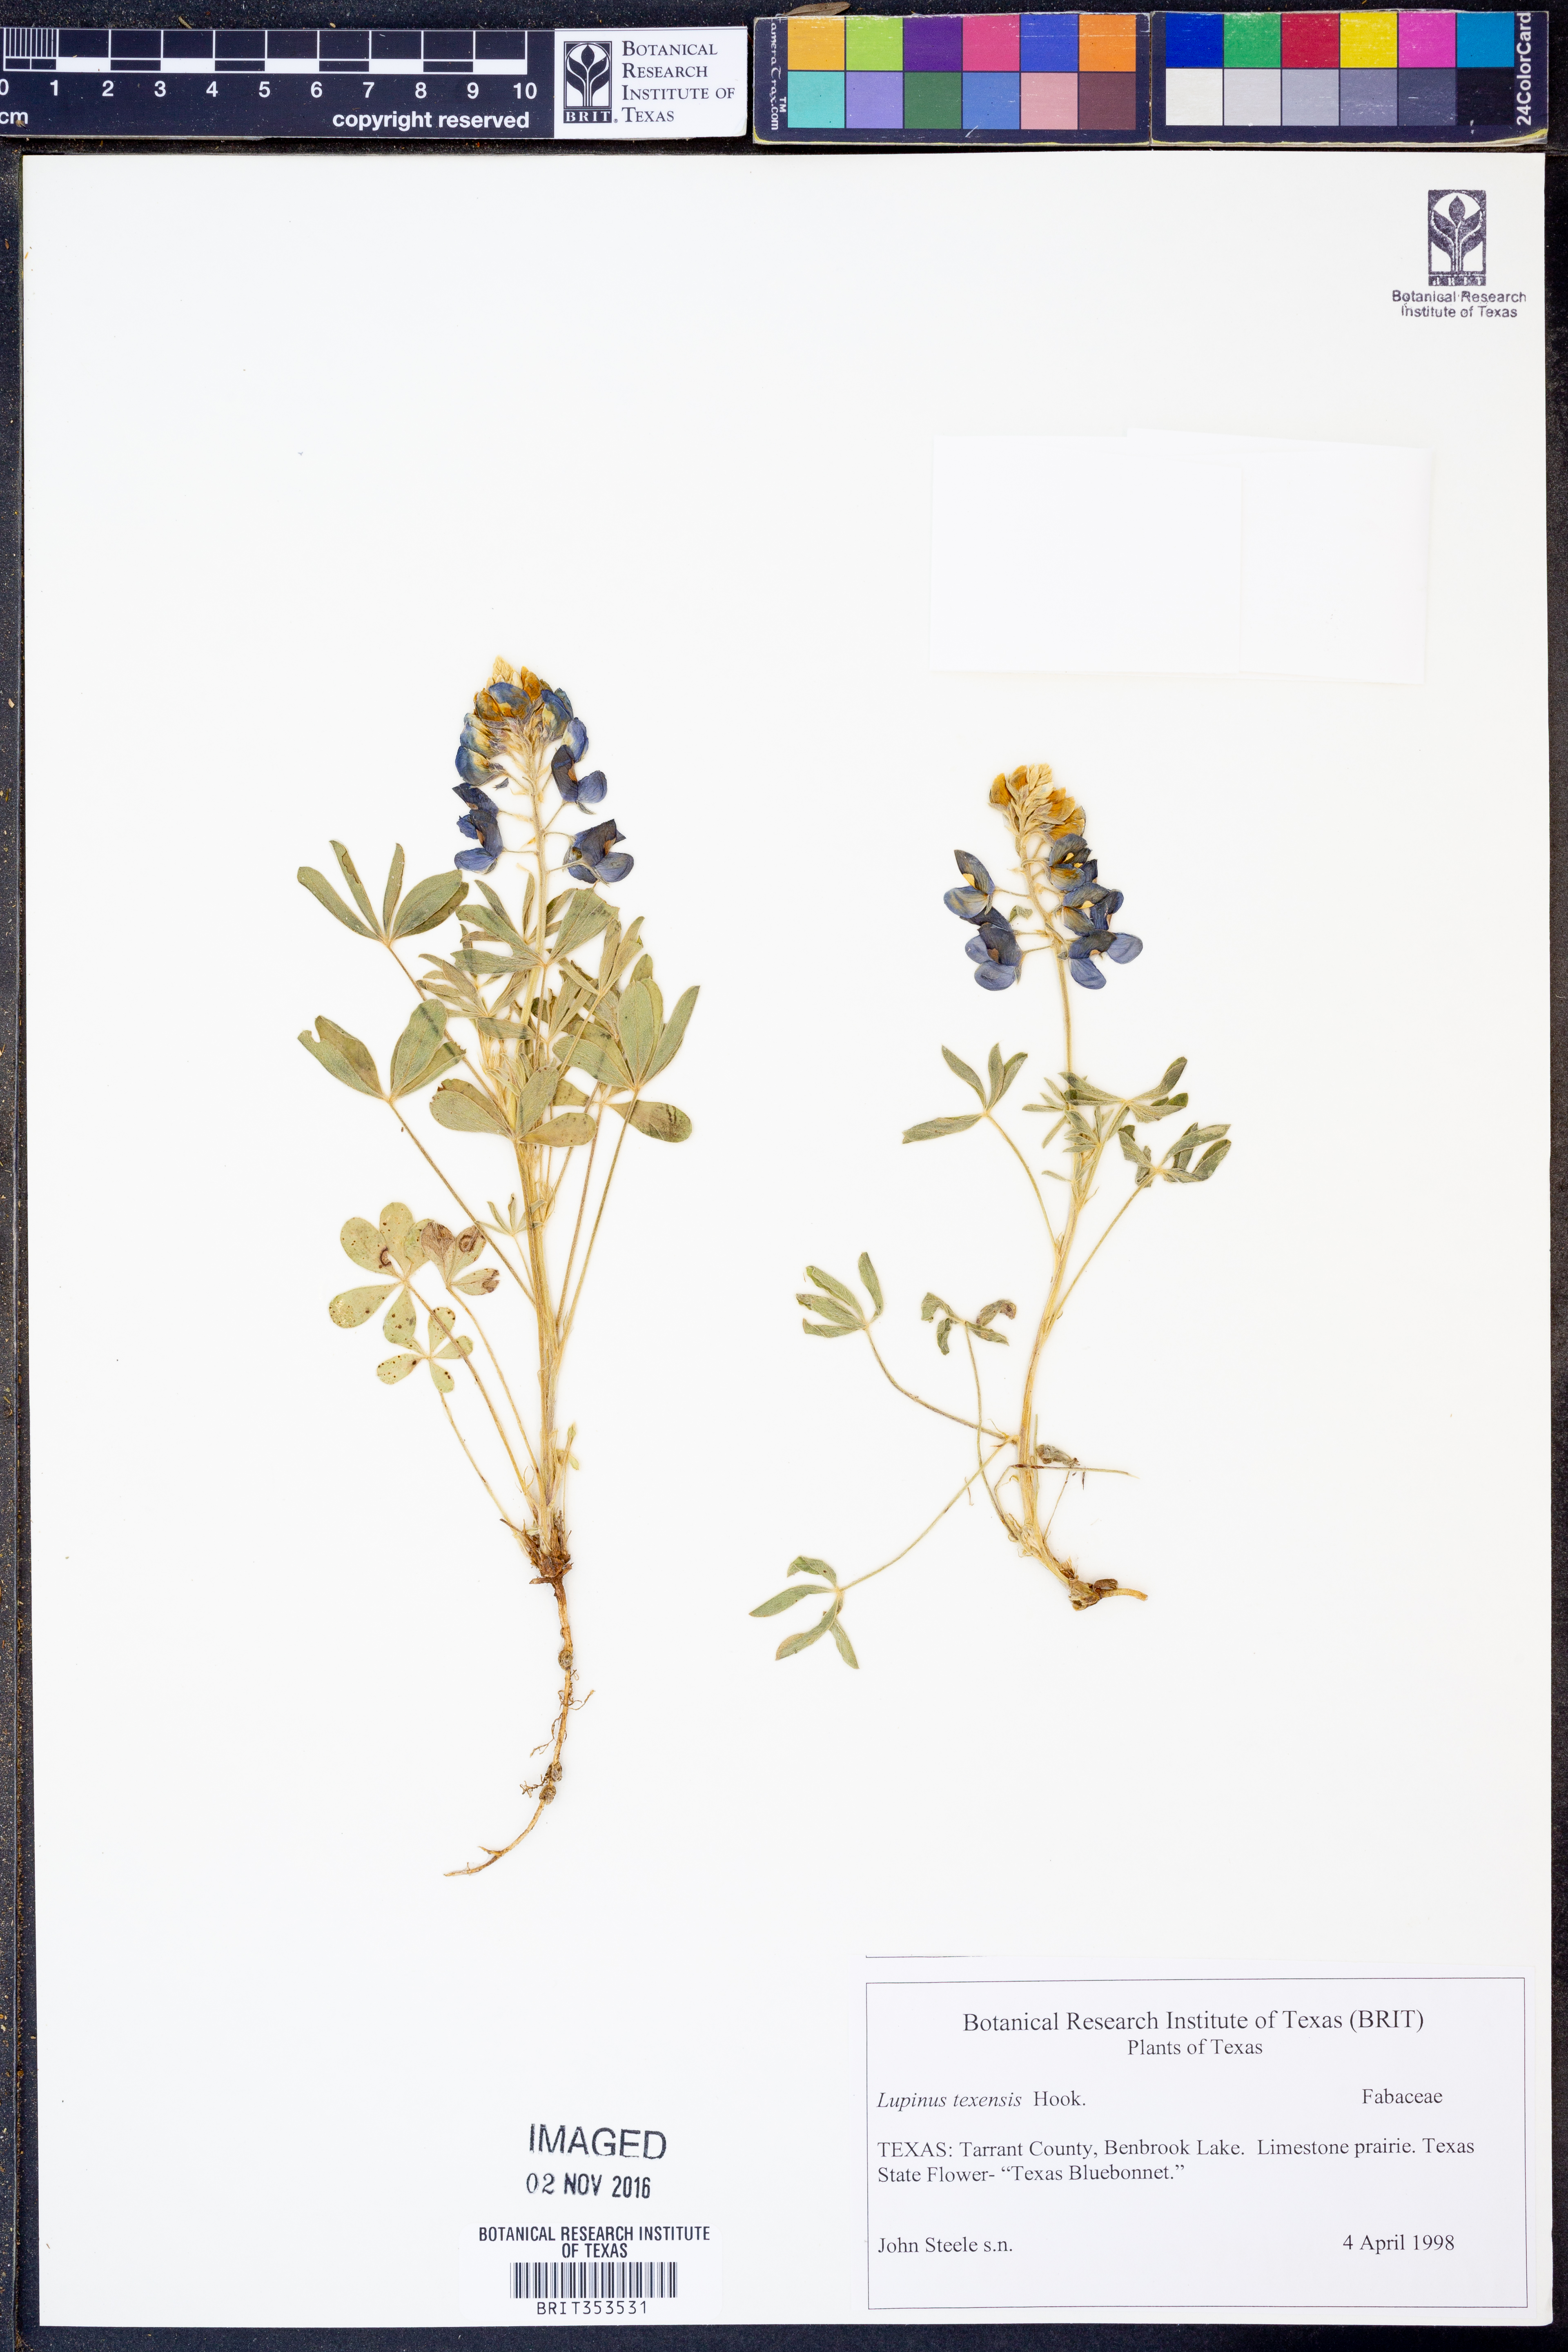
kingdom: Plantae
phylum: Tracheophyta
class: Magnoliopsida
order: Fabales
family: Fabaceae
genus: Lupinus
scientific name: Lupinus texensis
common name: Texas bluebonnet
